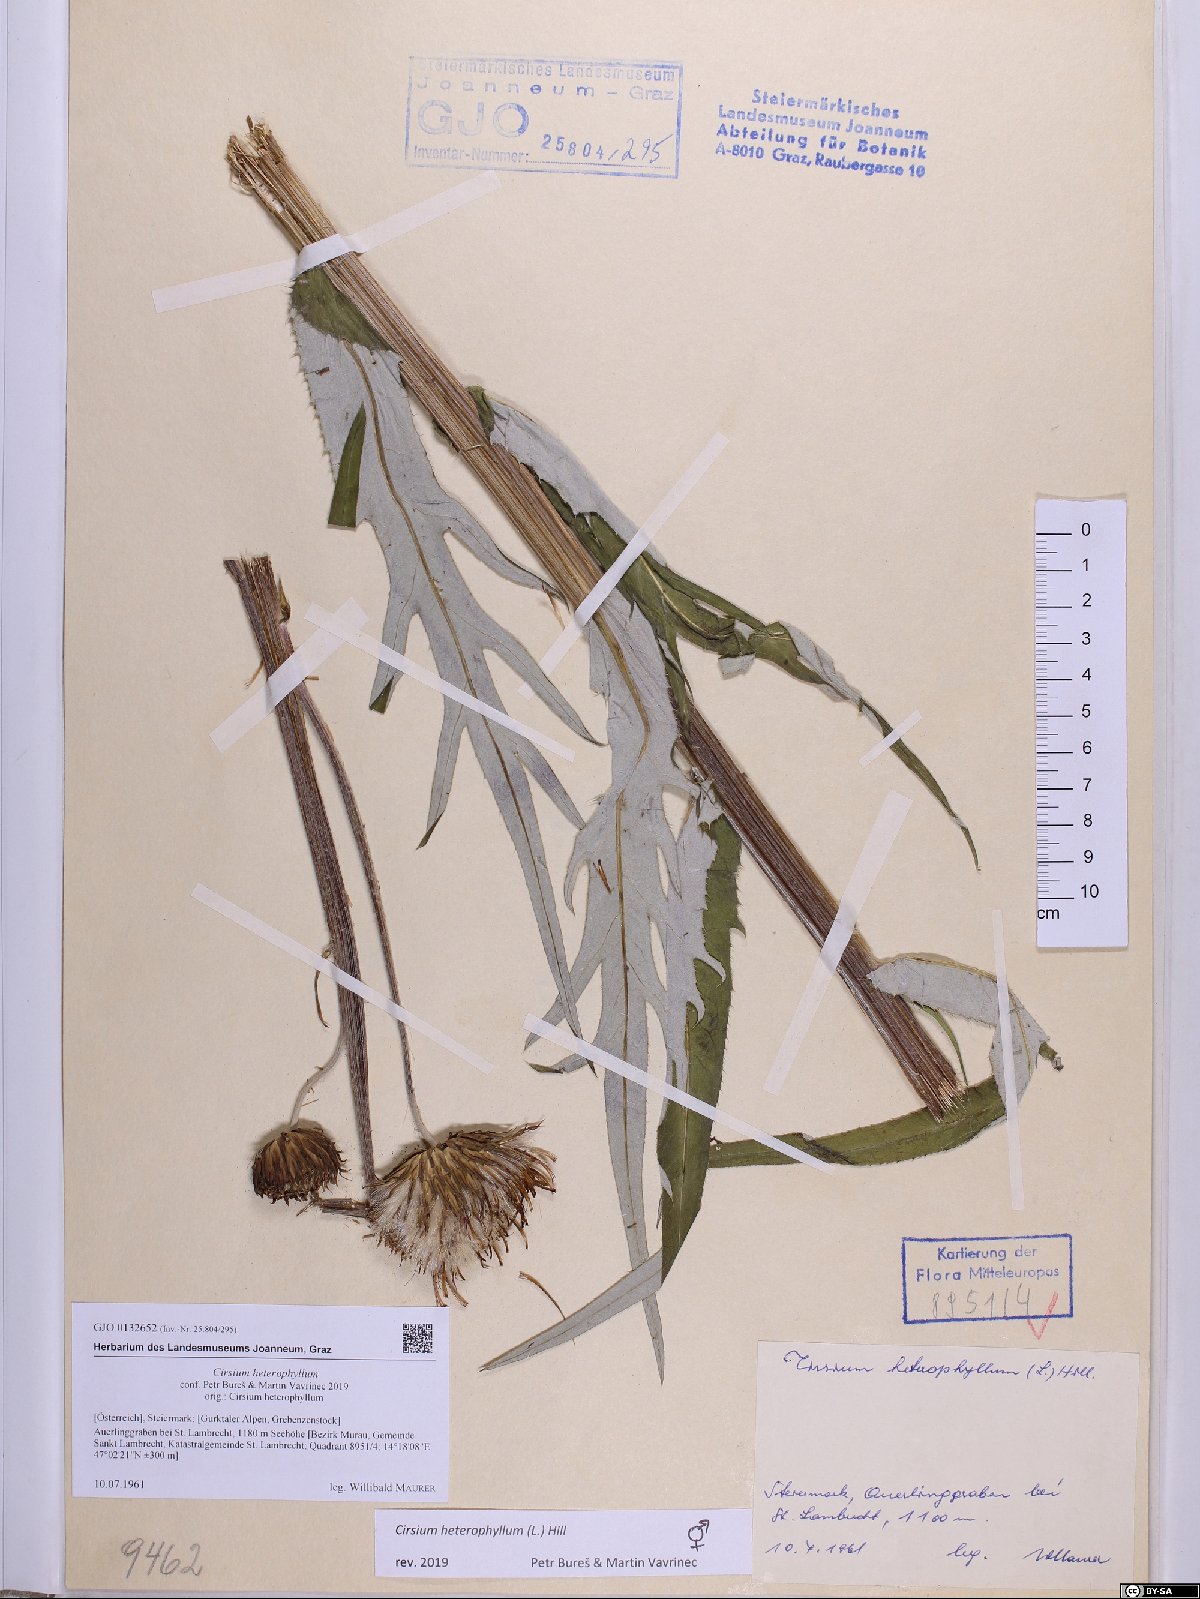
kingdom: Plantae
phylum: Tracheophyta
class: Magnoliopsida
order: Asterales
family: Asteraceae
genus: Cirsium
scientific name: Cirsium heterophyllum
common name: Melancholy thistle
